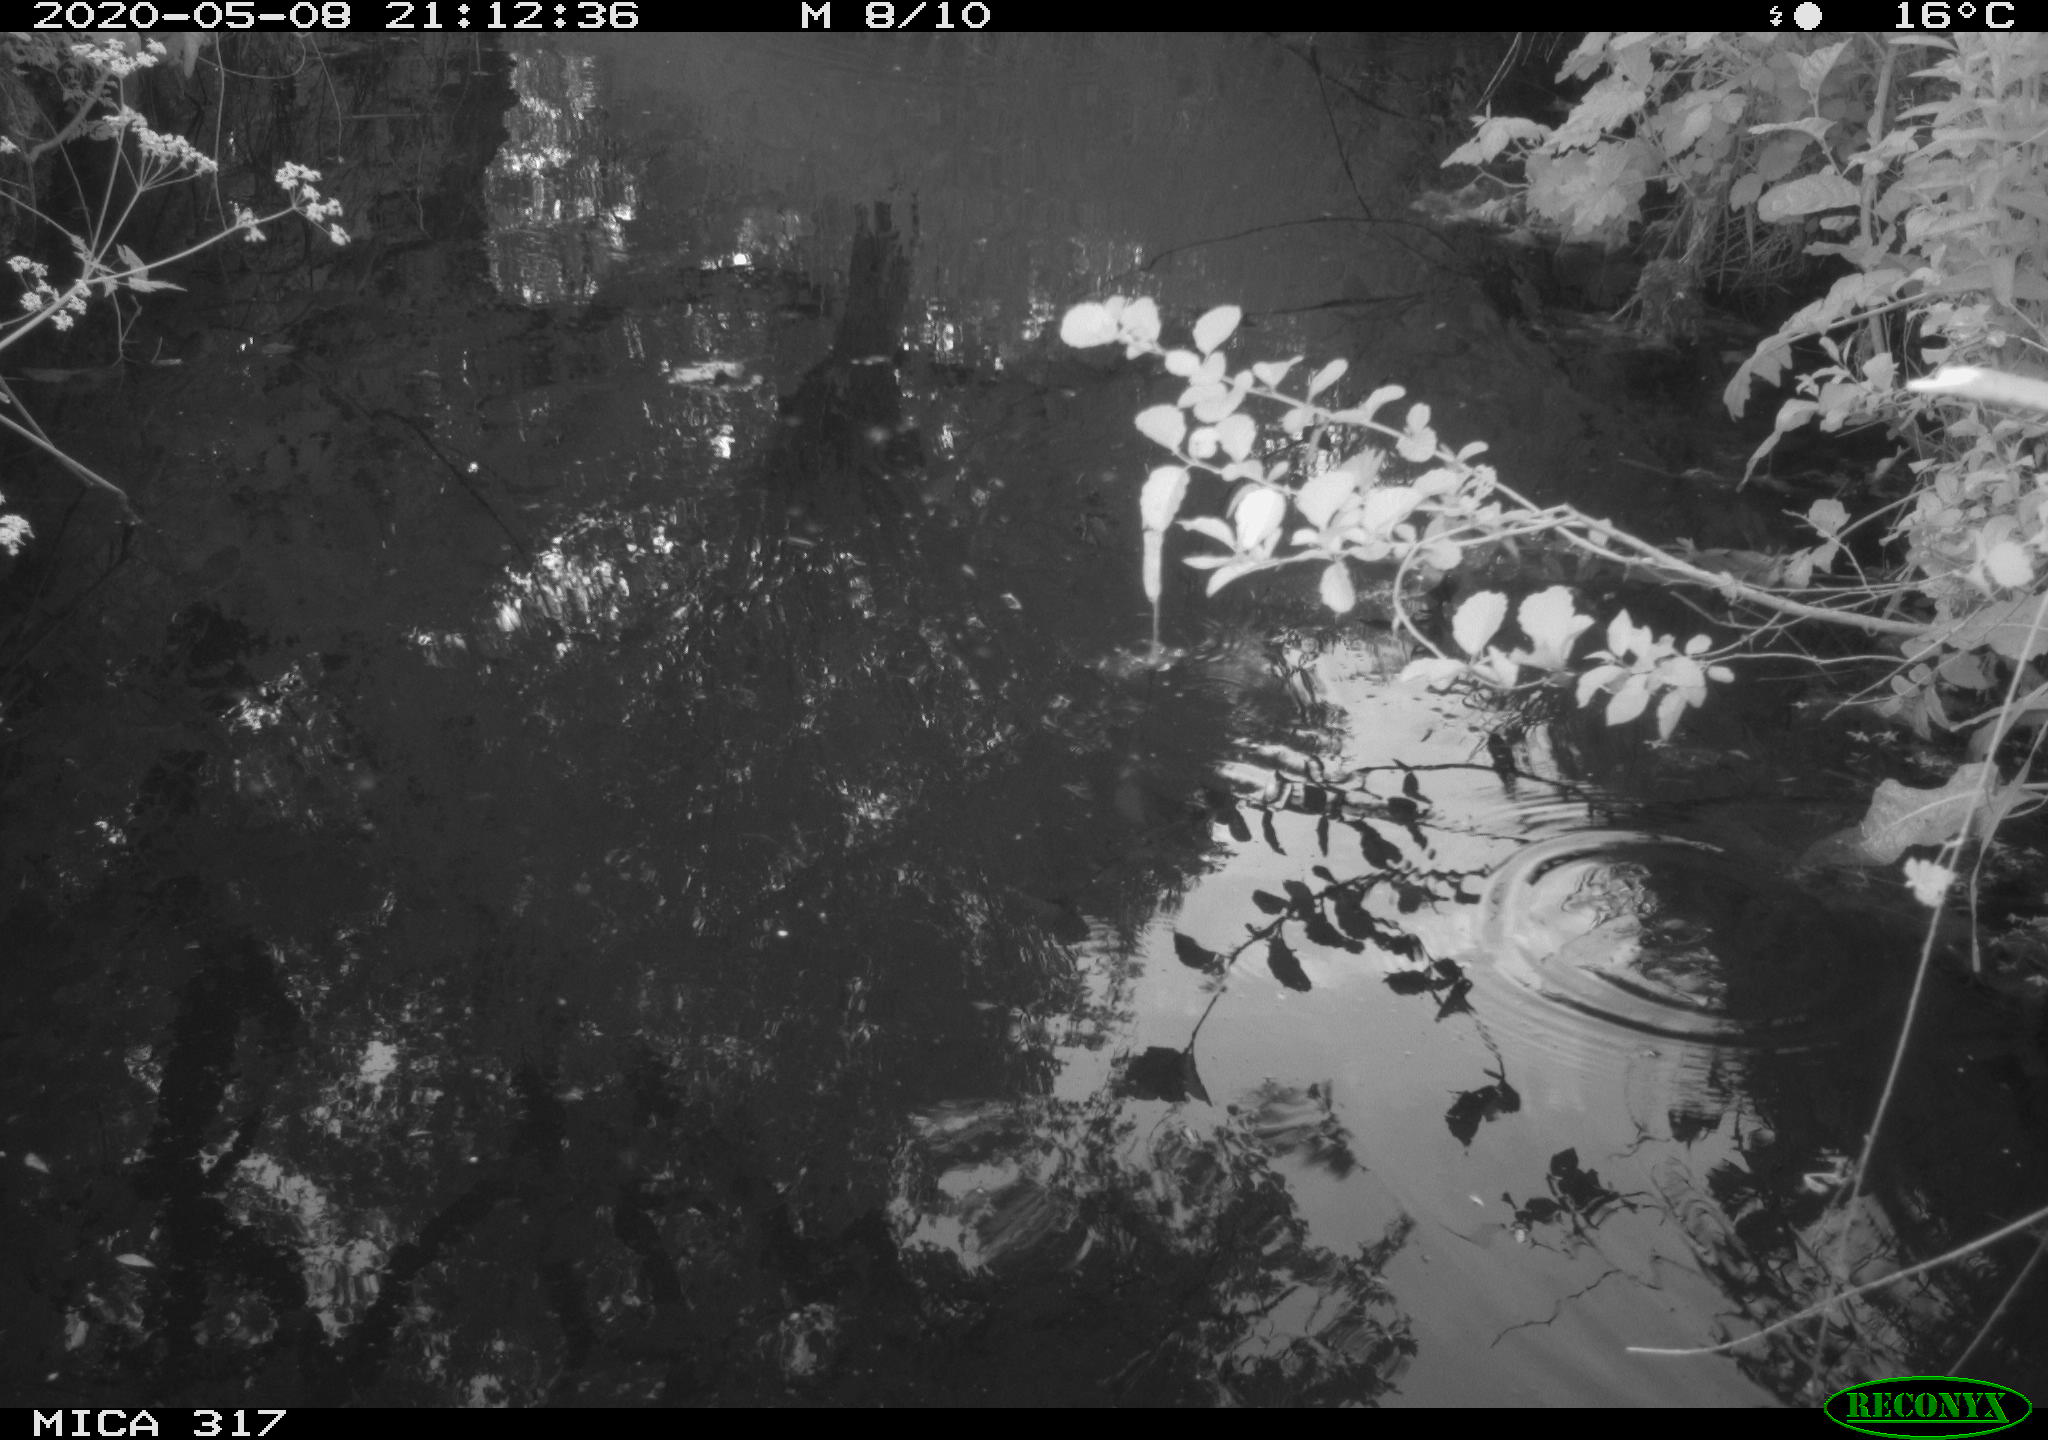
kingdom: Animalia
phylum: Chordata
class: Aves
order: Gruiformes
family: Rallidae
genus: Gallinula
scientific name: Gallinula chloropus
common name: Common moorhen
